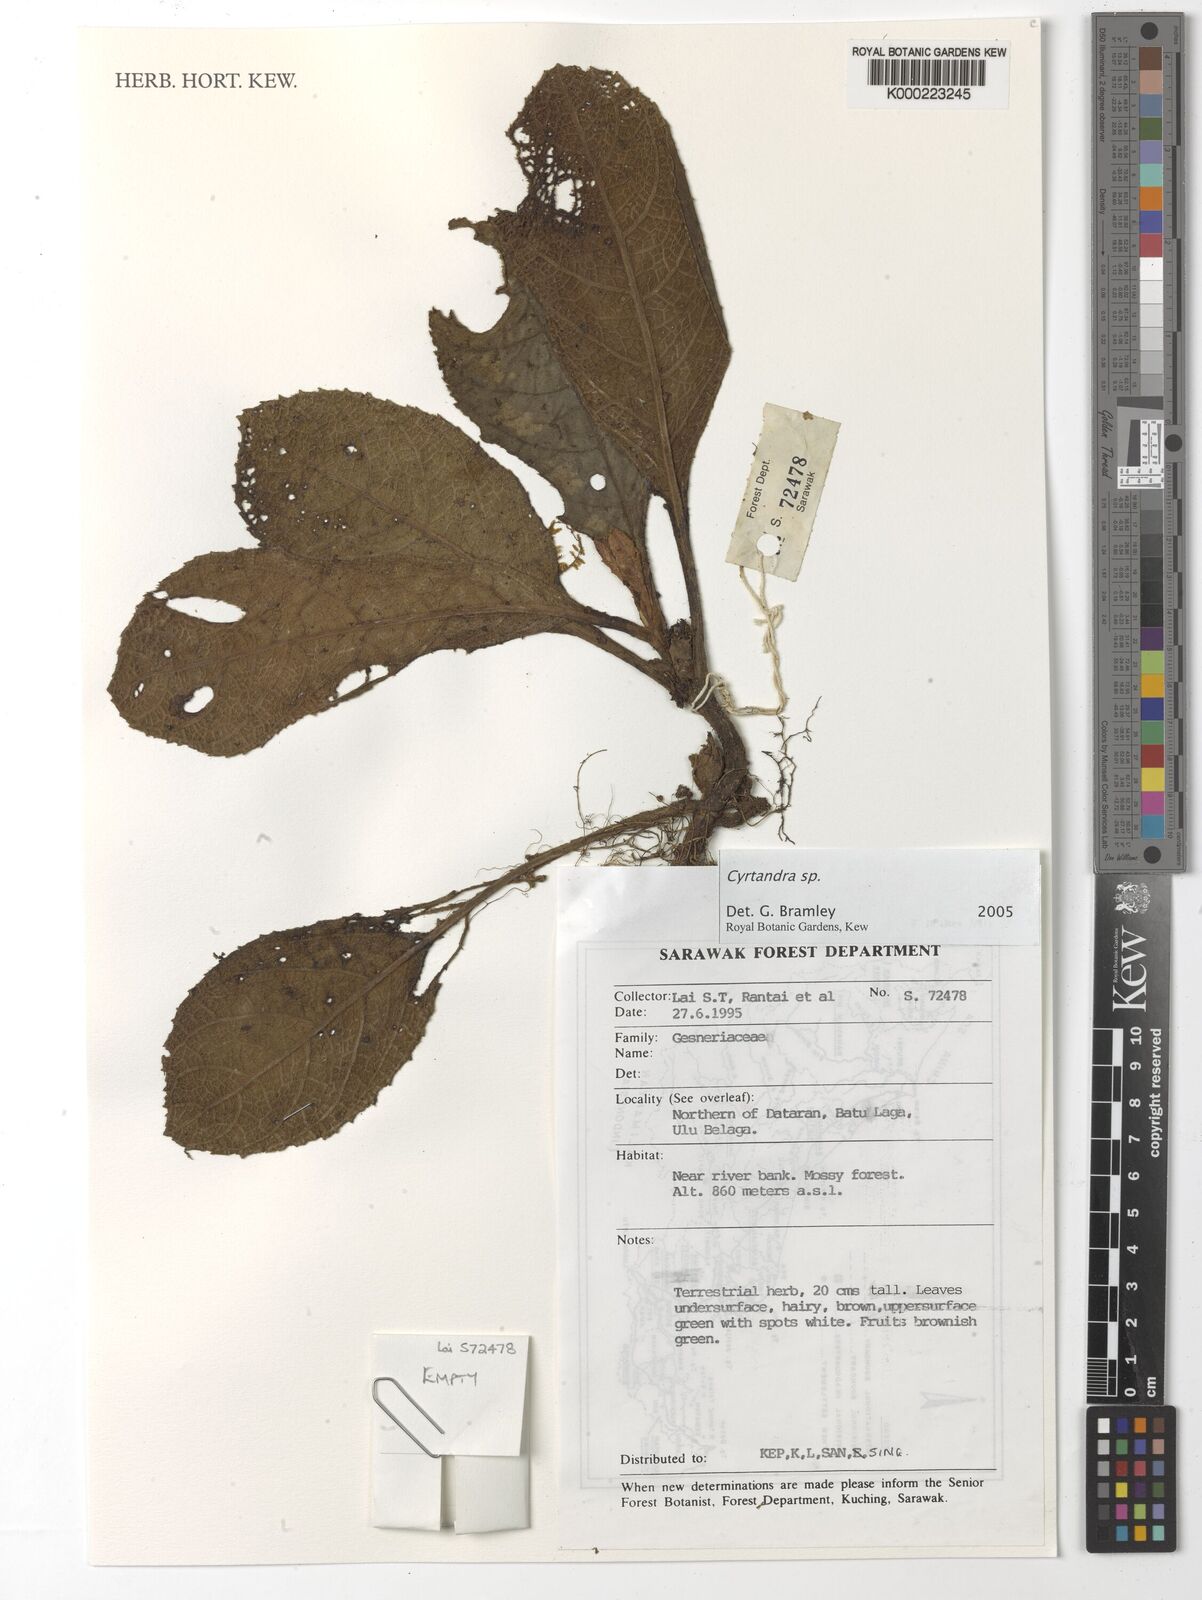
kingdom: Plantae
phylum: Tracheophyta
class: Magnoliopsida
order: Lamiales
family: Gesneriaceae
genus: Cyrtandra
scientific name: Cyrtandra
